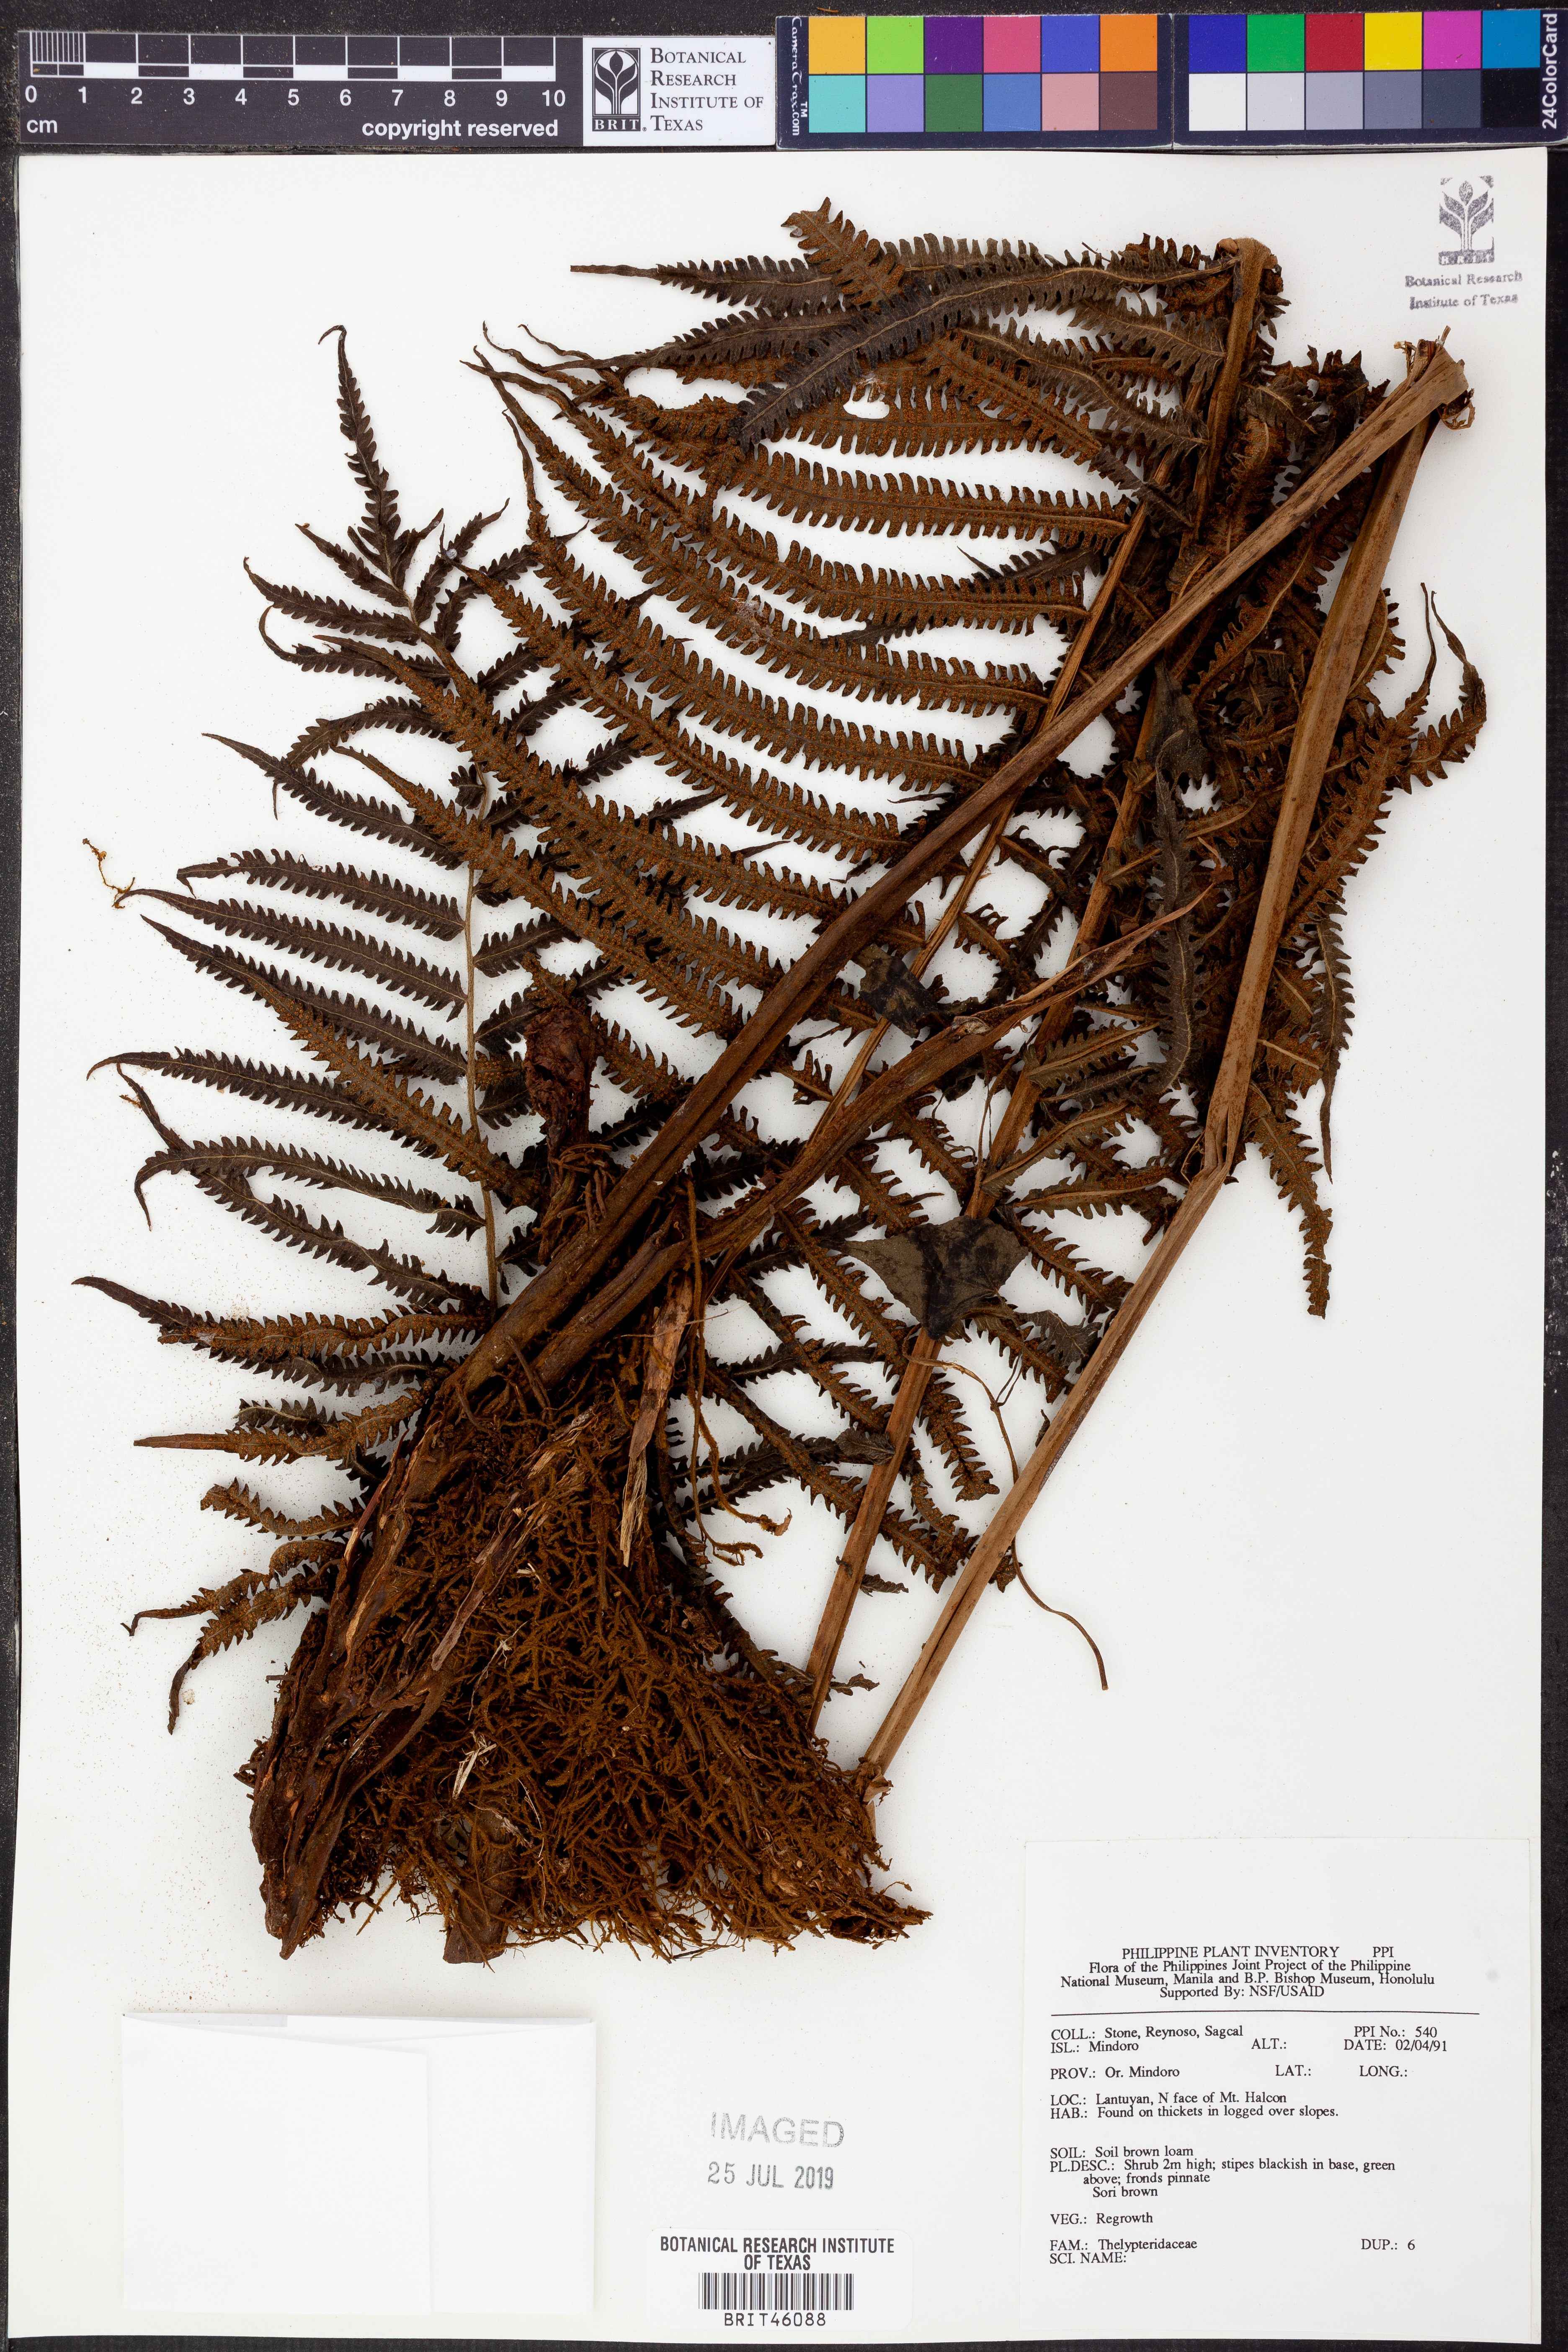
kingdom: Plantae
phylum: Tracheophyta
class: Polypodiopsida
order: Polypodiales
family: Thelypteridaceae
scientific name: Thelypteridaceae
